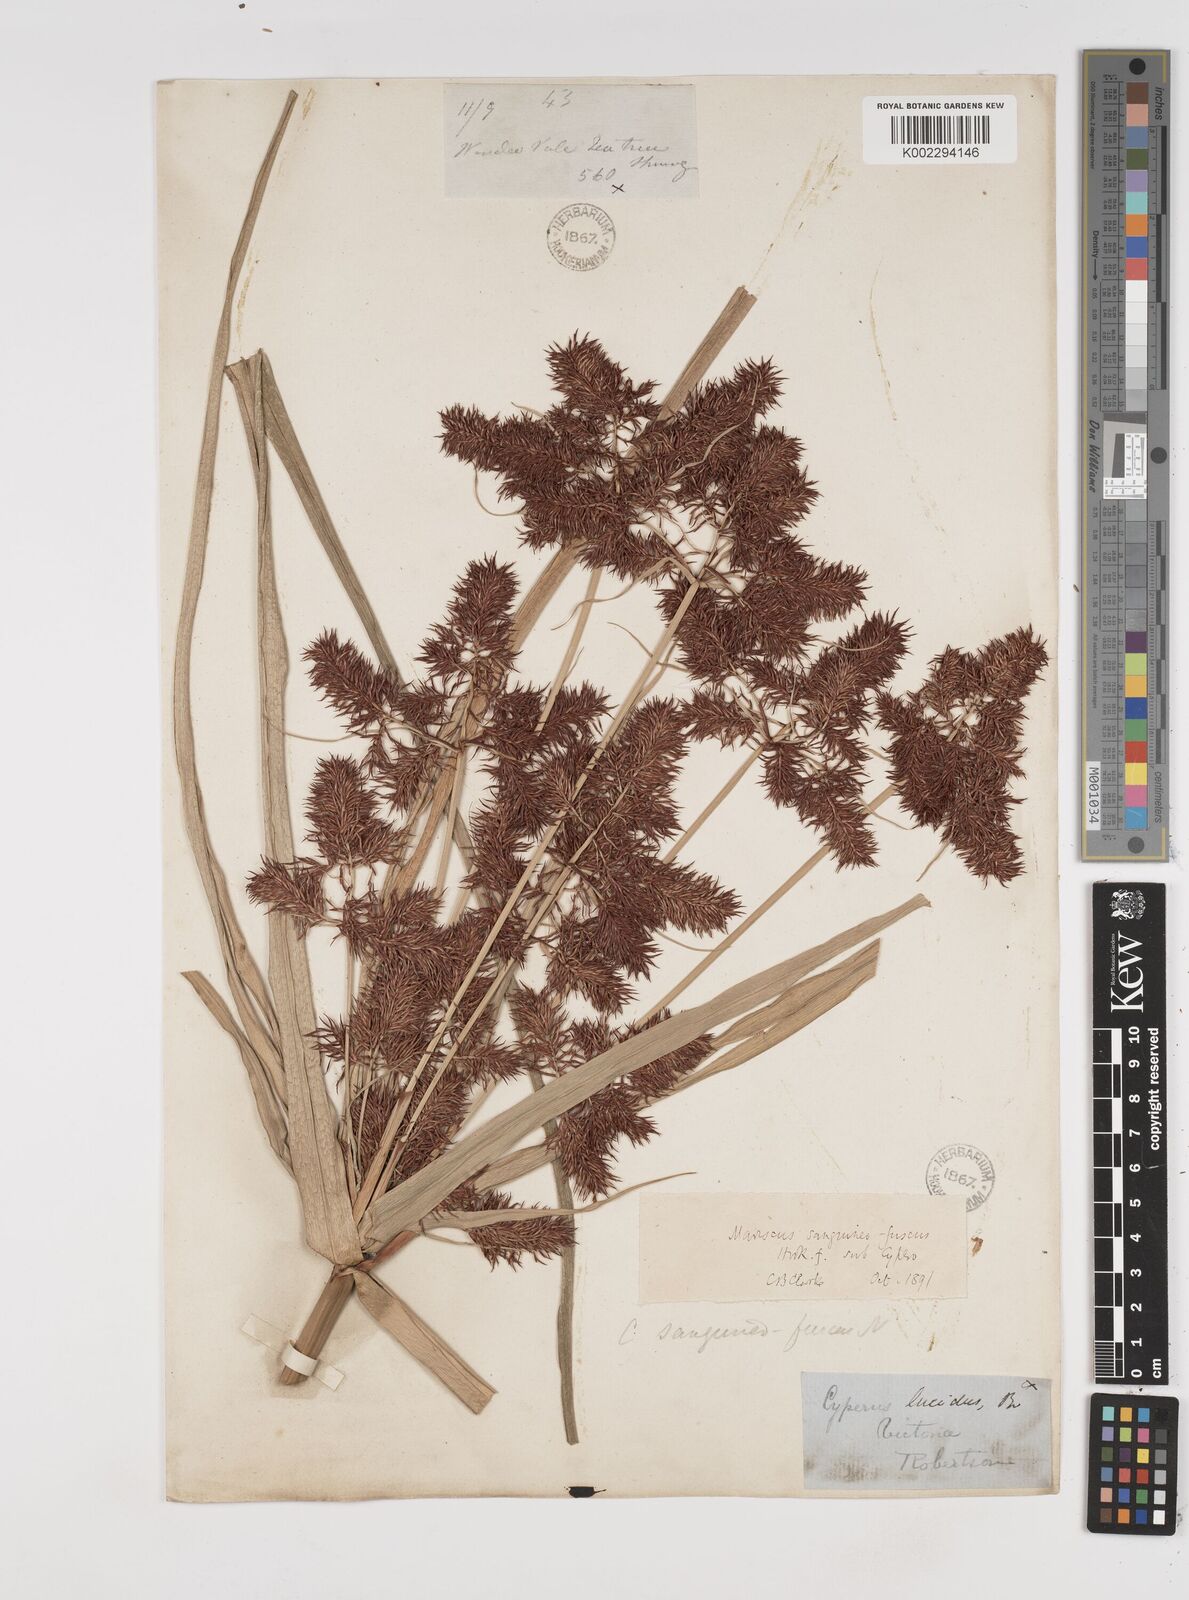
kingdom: Plantae
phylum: Tracheophyta
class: Liliopsida
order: Poales
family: Cyperaceae
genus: Cyperus
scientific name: Cyperus lucidus
